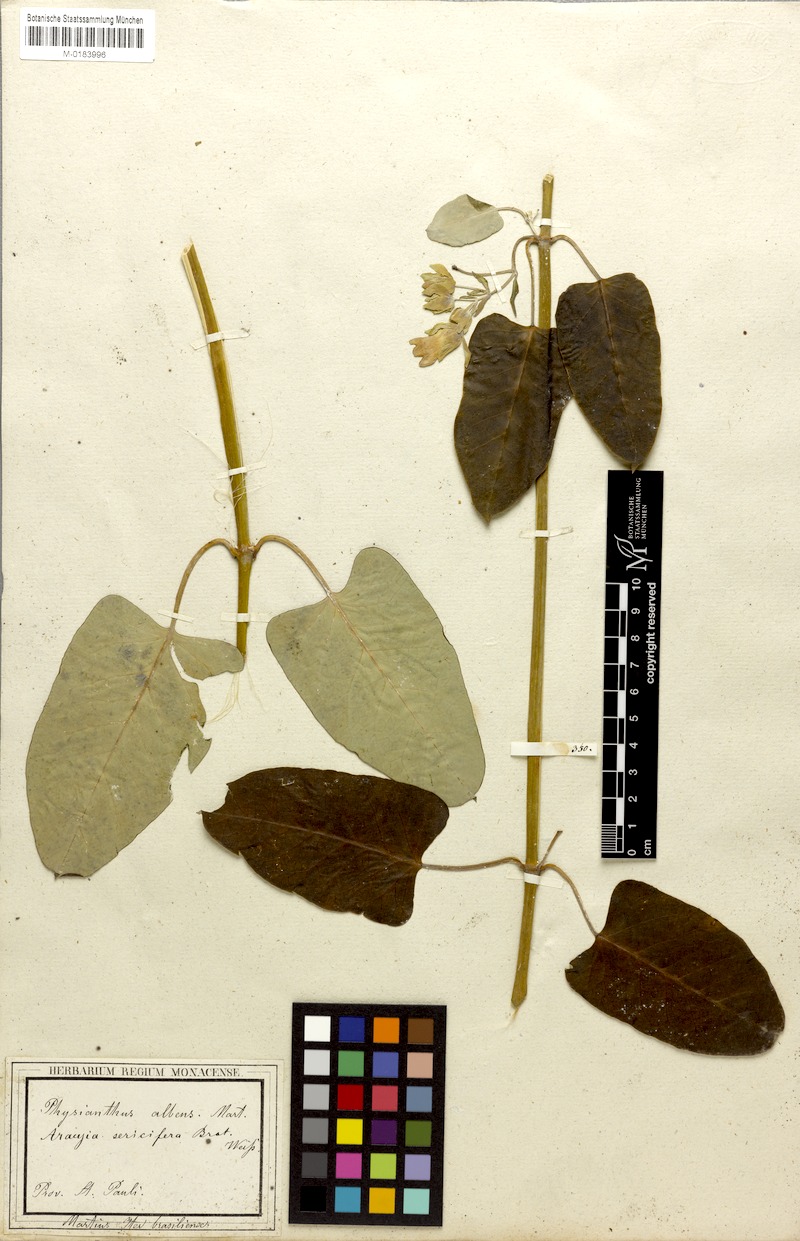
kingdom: Plantae
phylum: Tracheophyta
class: Magnoliopsida
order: Gentianales
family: Apocynaceae
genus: Araujia
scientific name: Araujia sericifera
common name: White bladderflower
